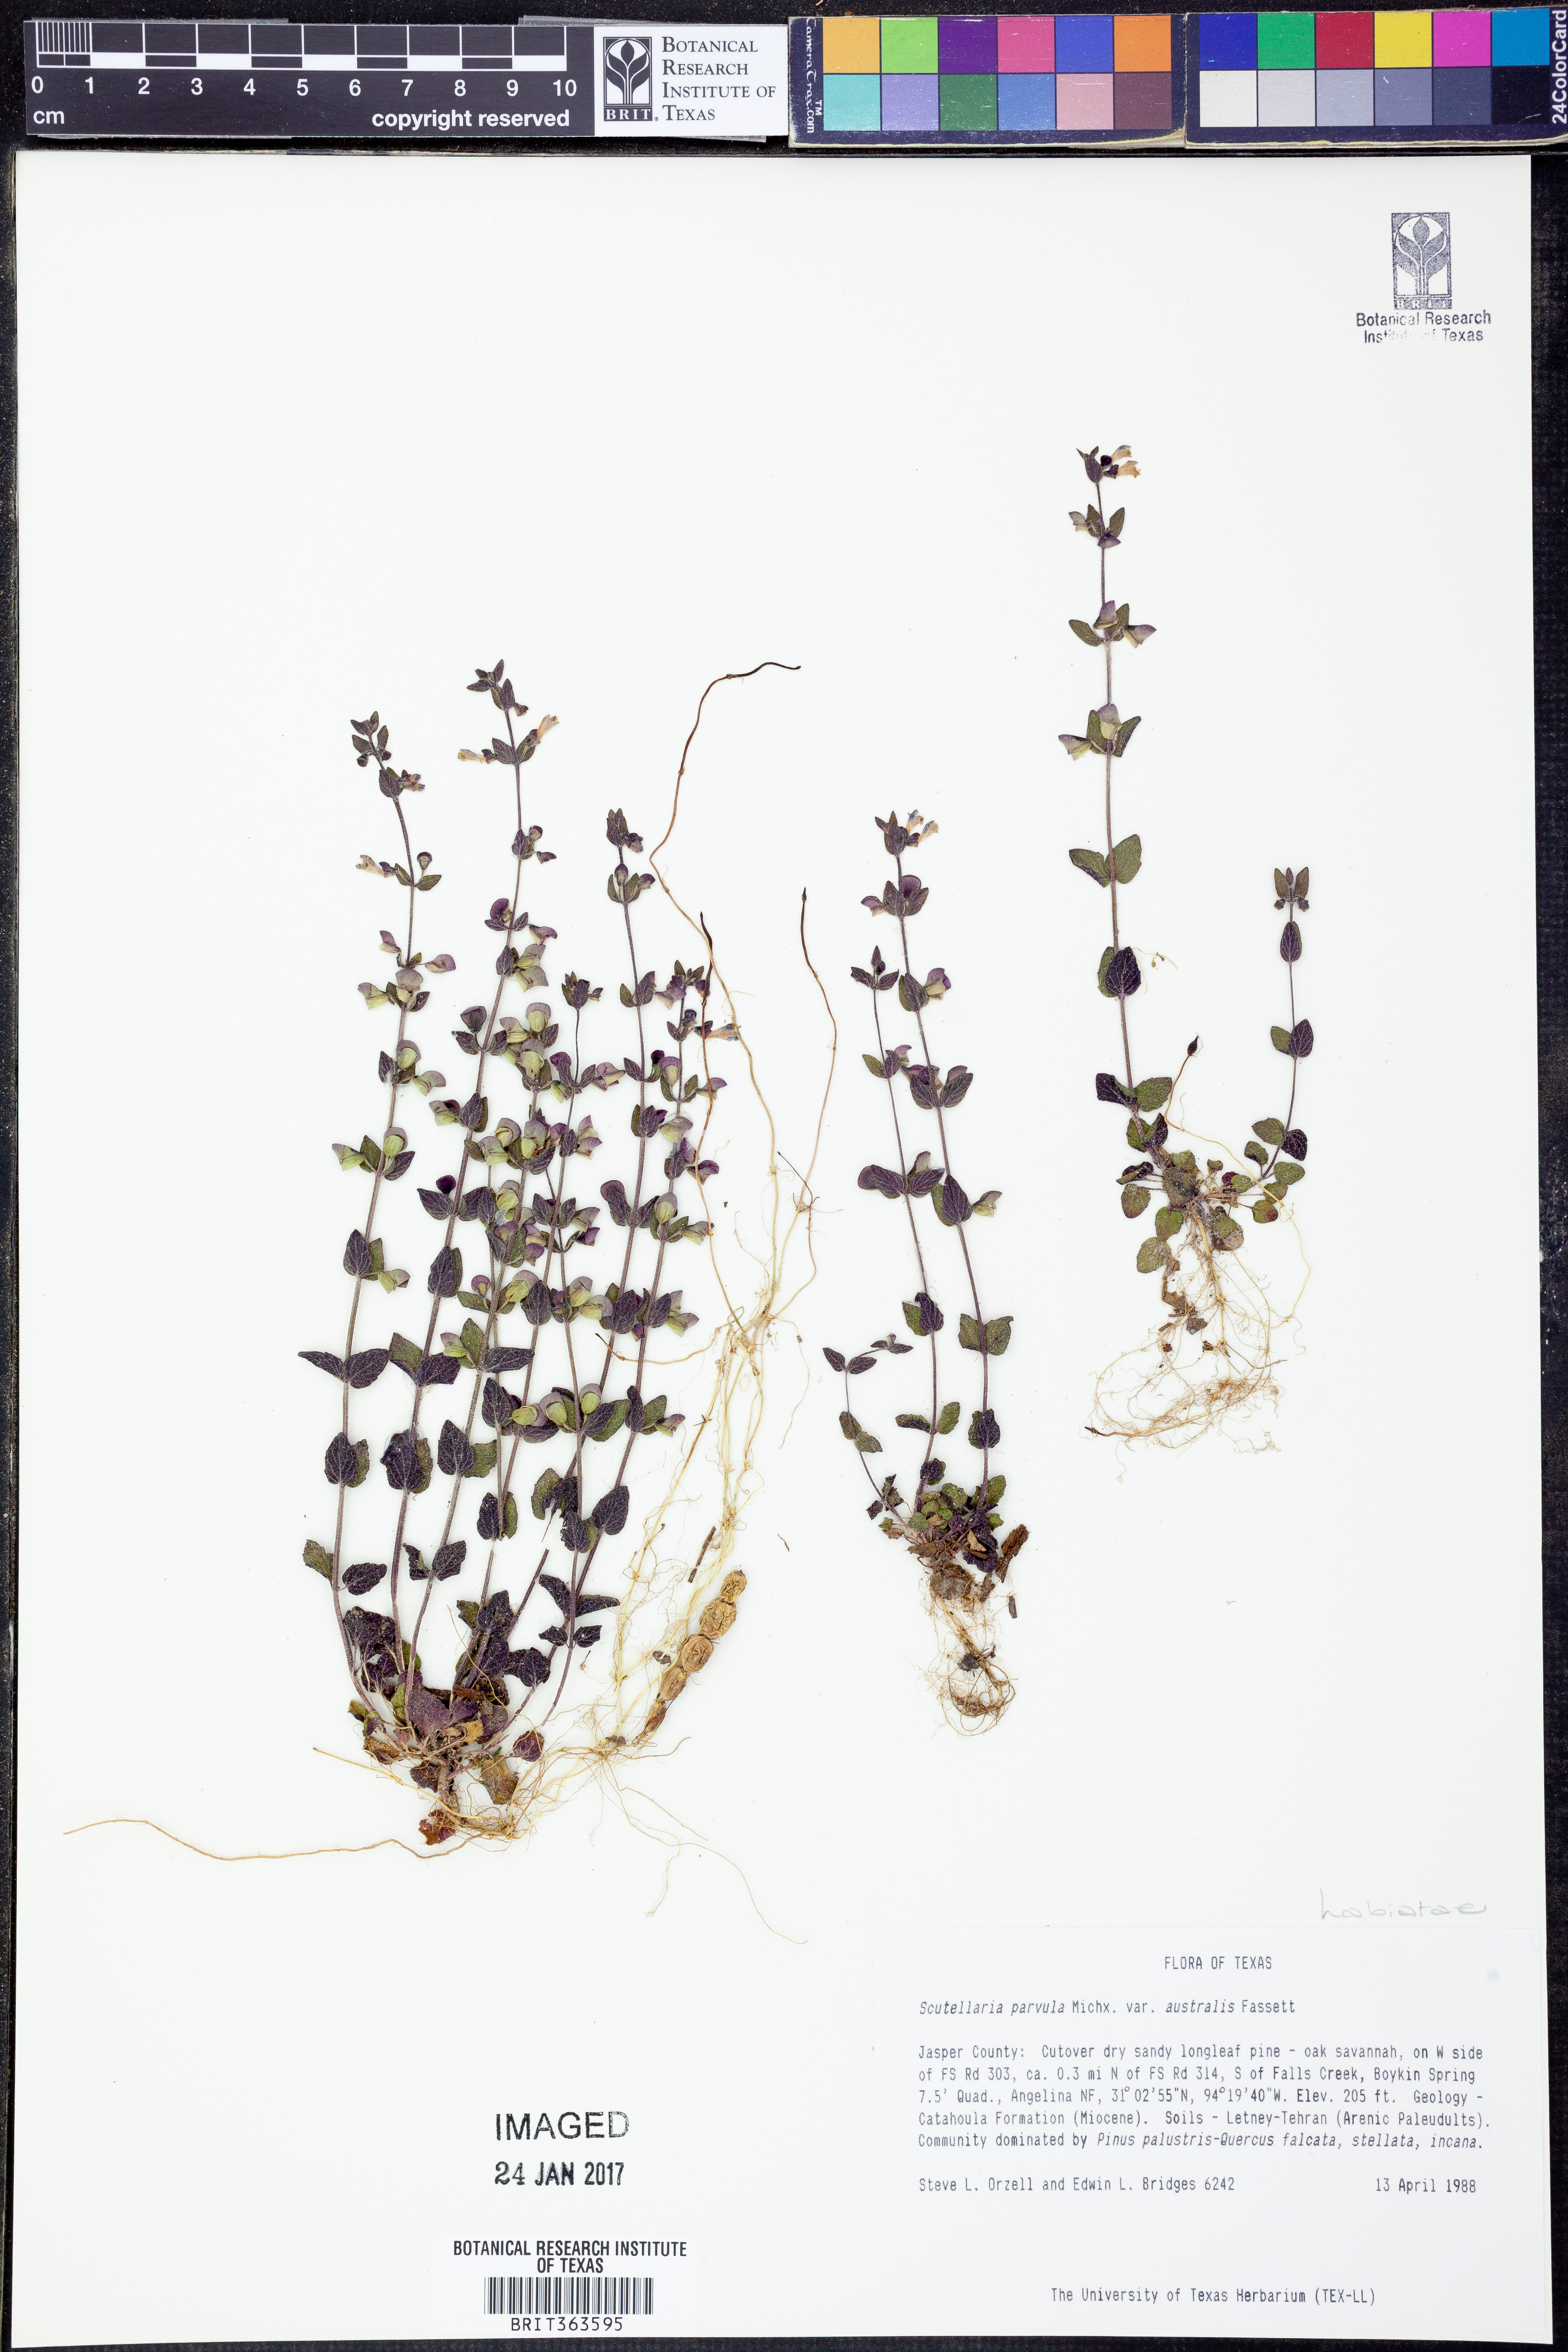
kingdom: Plantae
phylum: Tracheophyta
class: Magnoliopsida
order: Lamiales
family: Lamiaceae
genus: Scutellaria
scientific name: Scutellaria parvula
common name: Little scullcap
